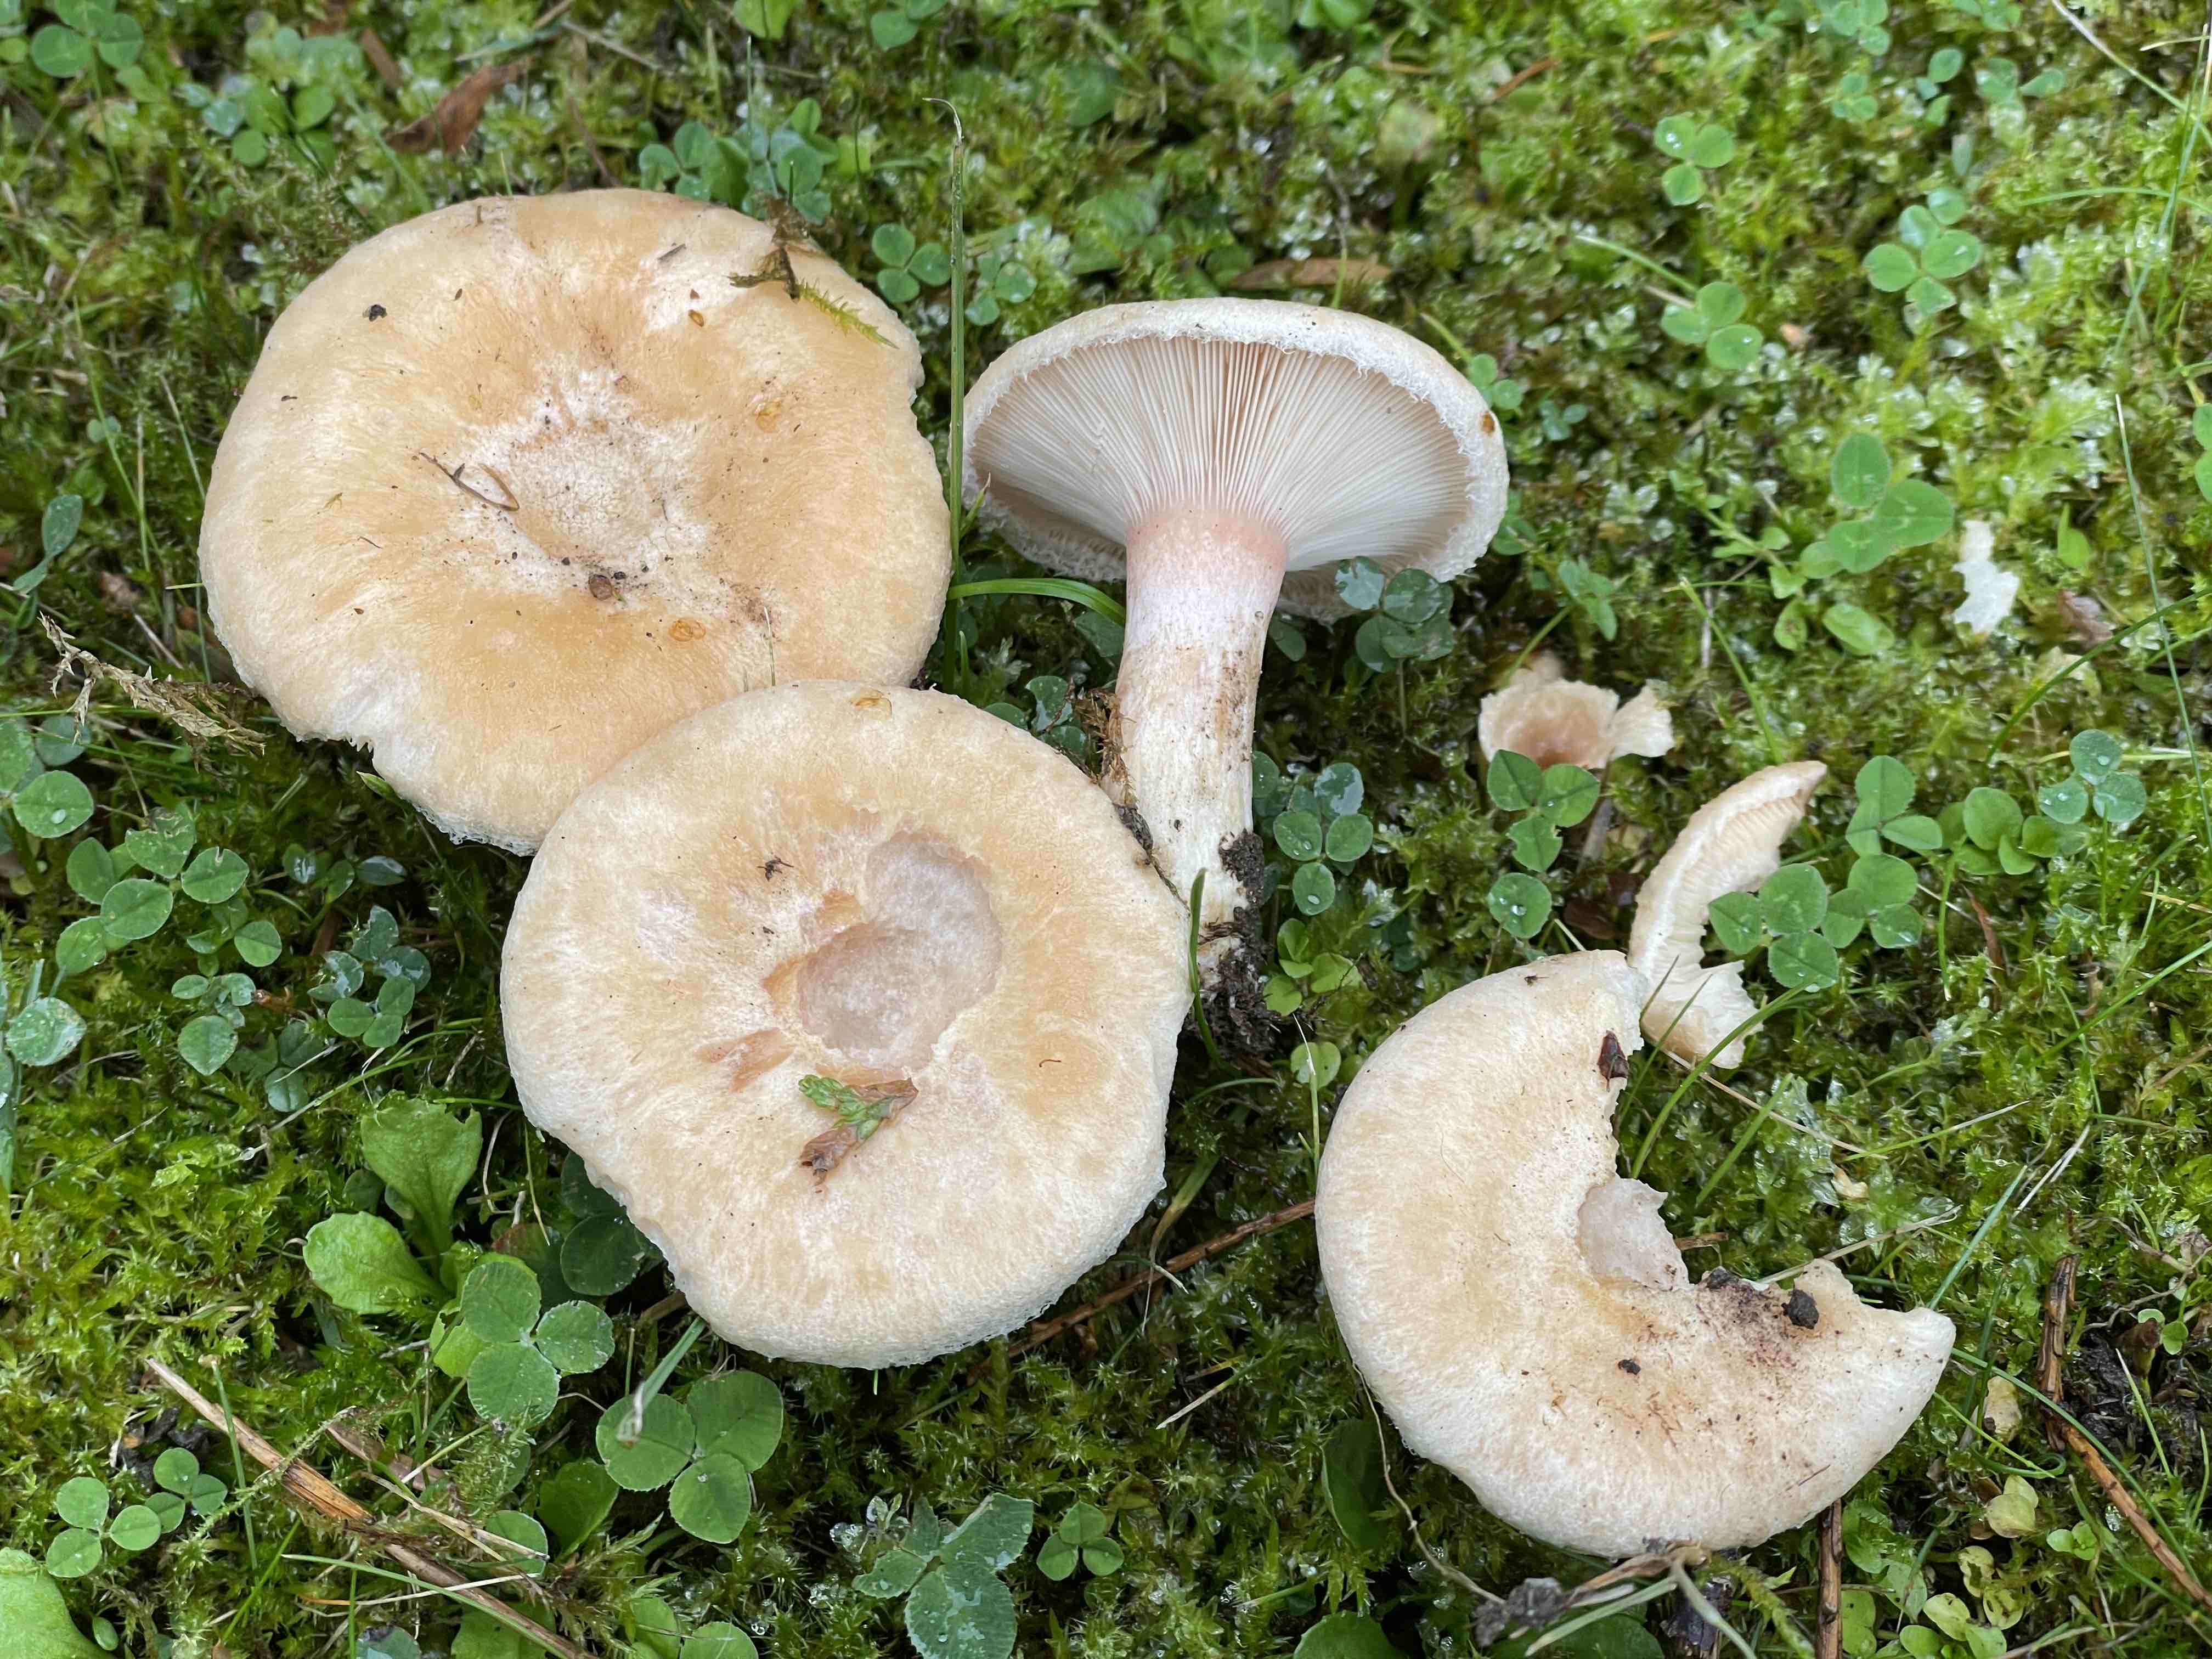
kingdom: Fungi
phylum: Basidiomycota
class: Agaricomycetes
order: Russulales
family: Russulaceae
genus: Lactarius
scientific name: Lactarius pubescens
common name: dunet mælkehat
